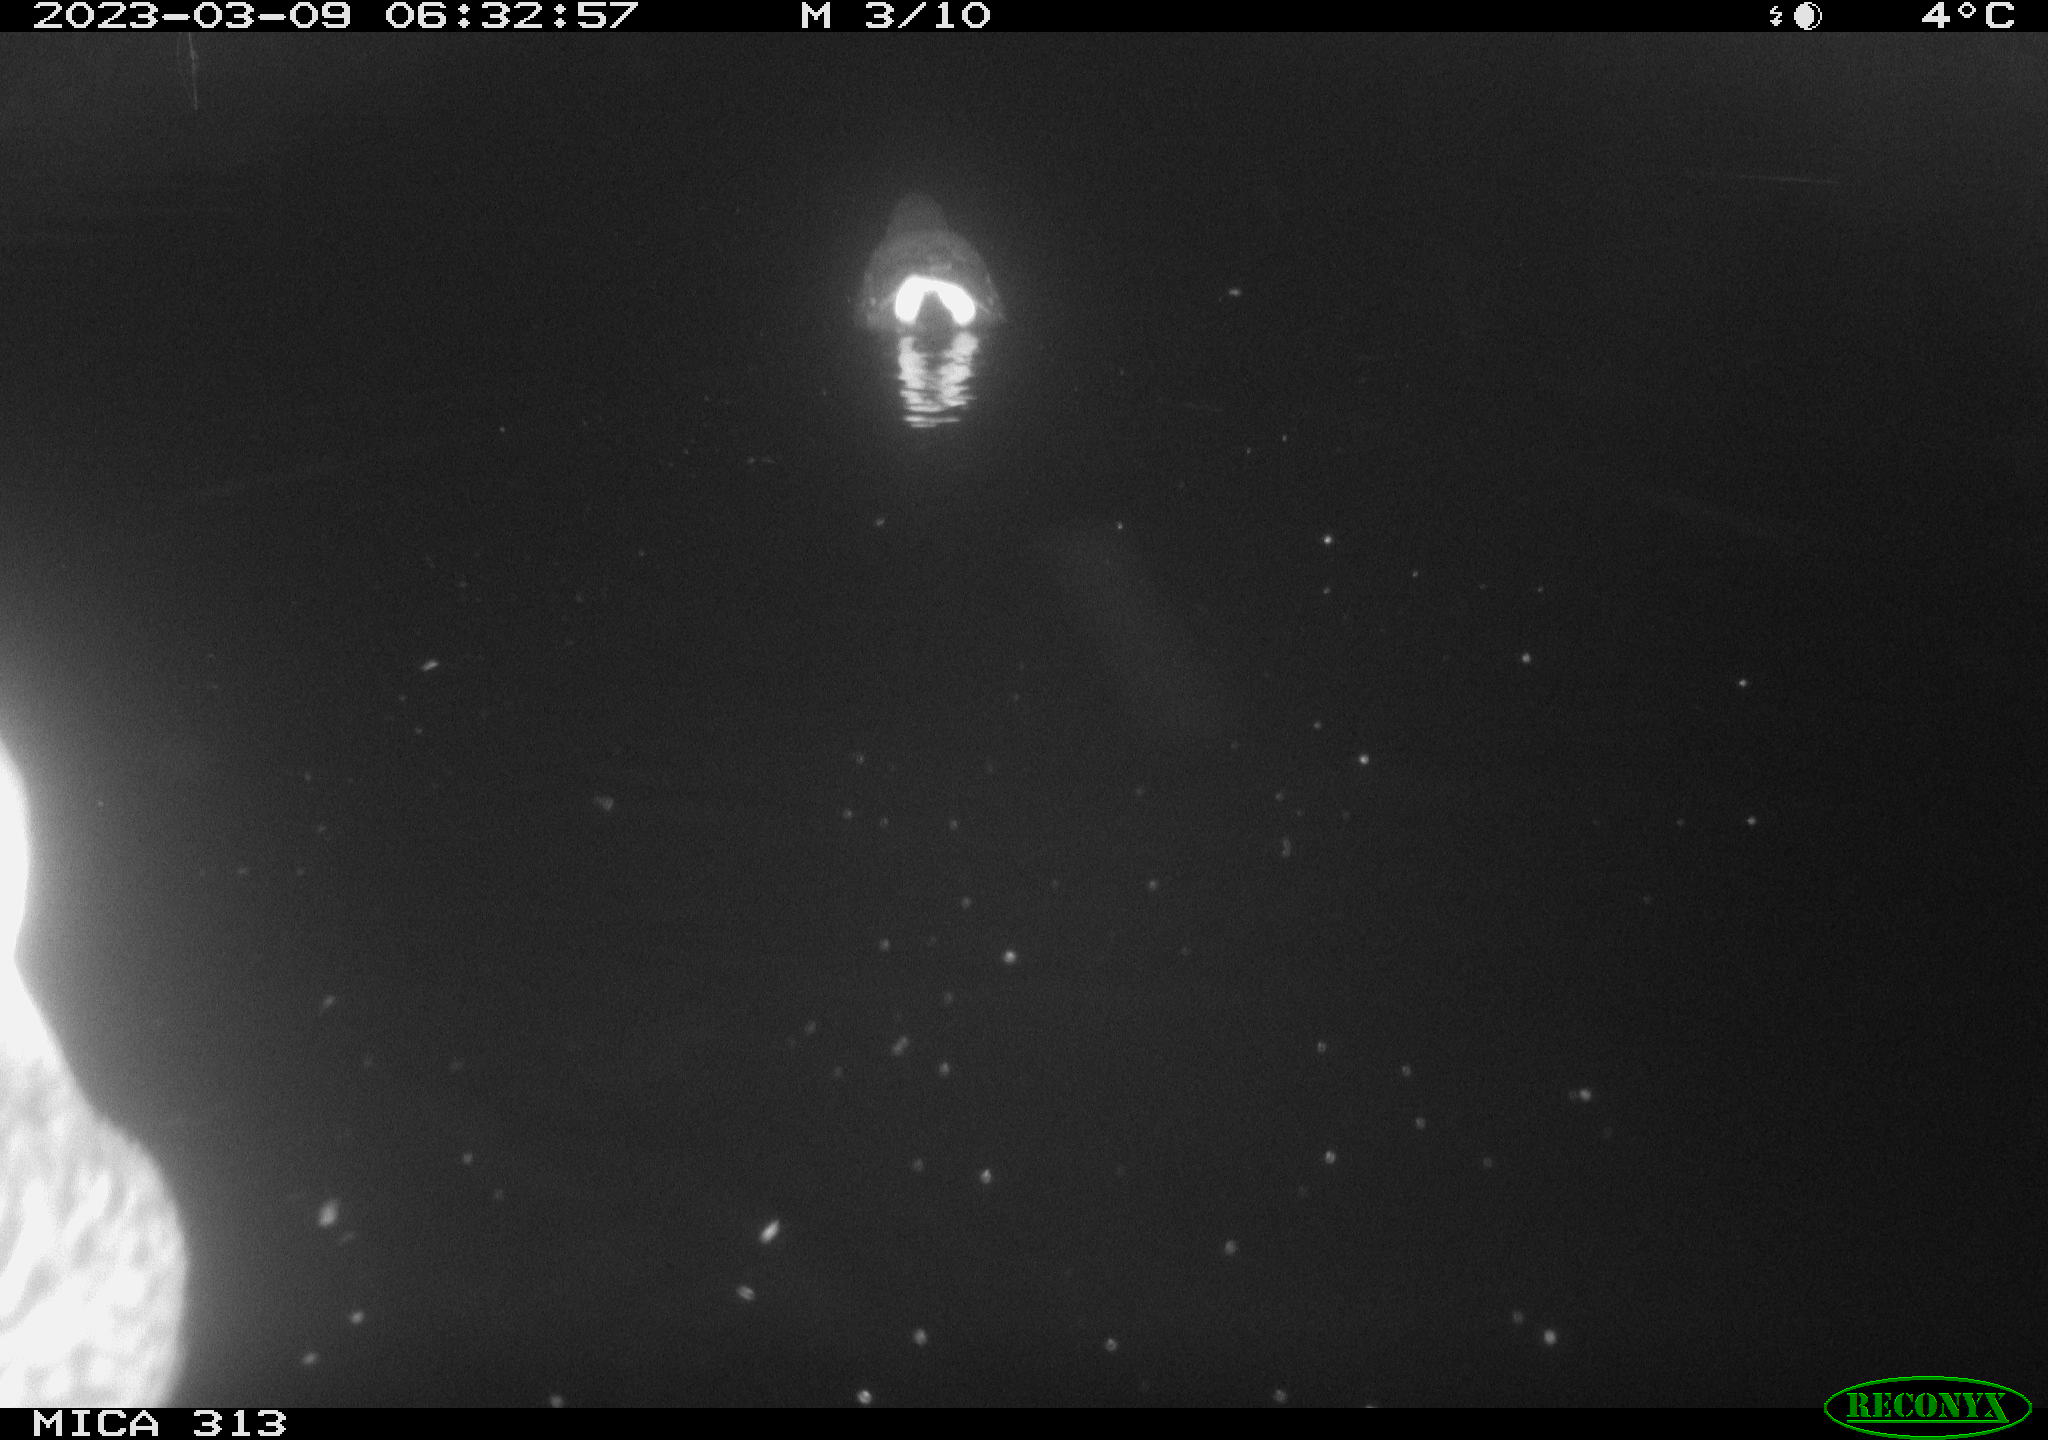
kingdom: Animalia
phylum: Chordata
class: Aves
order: Anseriformes
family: Anatidae
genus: Anas
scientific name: Anas
